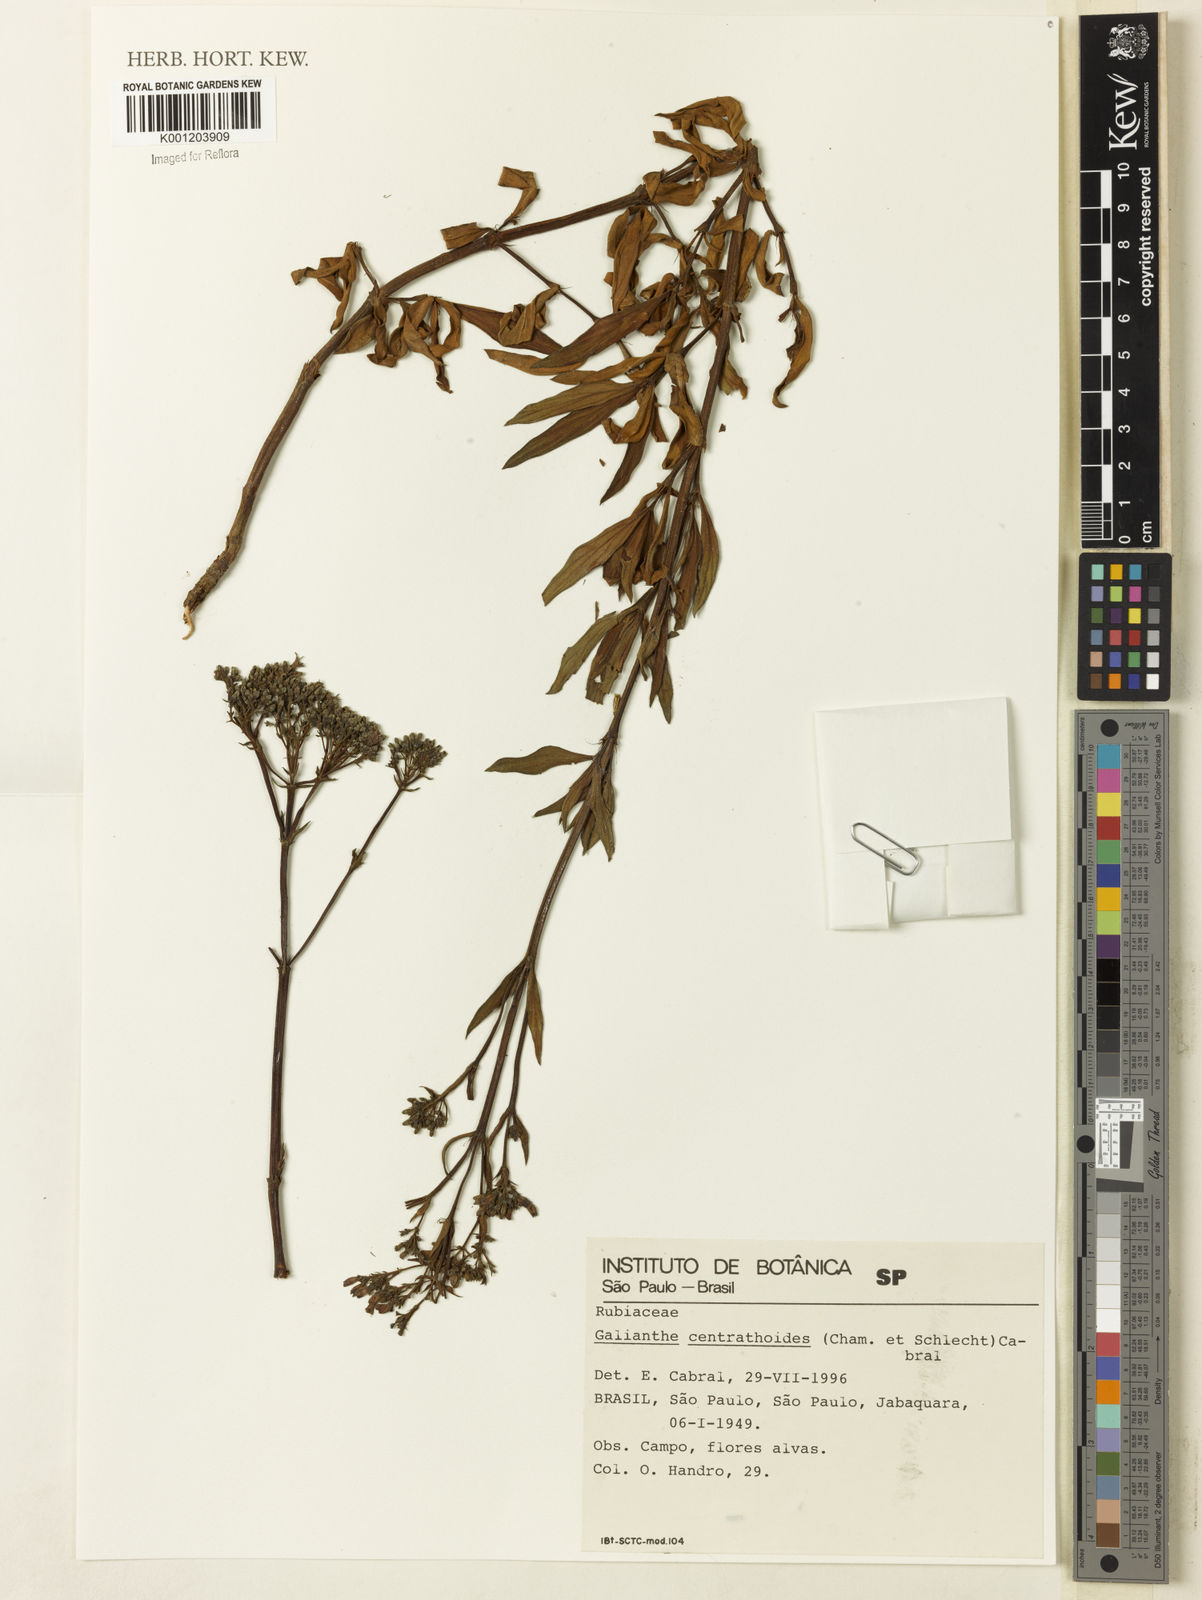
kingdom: Plantae
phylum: Tracheophyta
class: Magnoliopsida
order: Gentianales
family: Rubiaceae
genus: Galianthe
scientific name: Galianthe centranthoides
